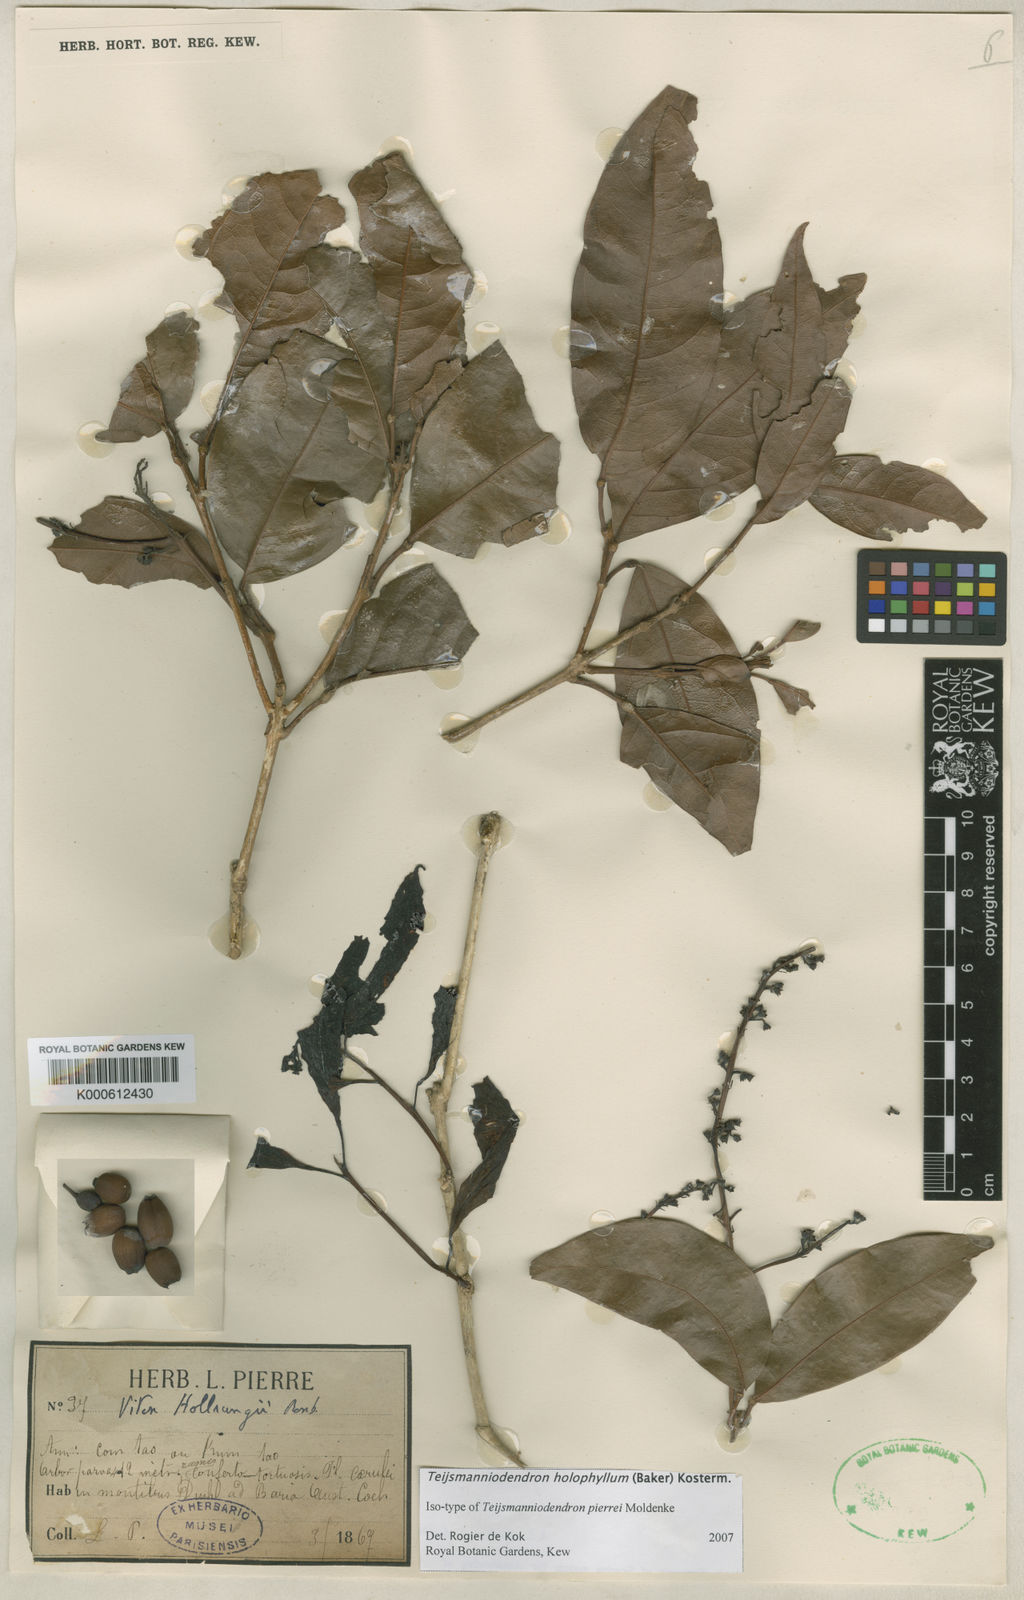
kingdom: Plantae
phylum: Tracheophyta
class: Magnoliopsida
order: Lamiales
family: Lamiaceae
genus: Teijsmanniodendron
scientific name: Teijsmanniodendron
